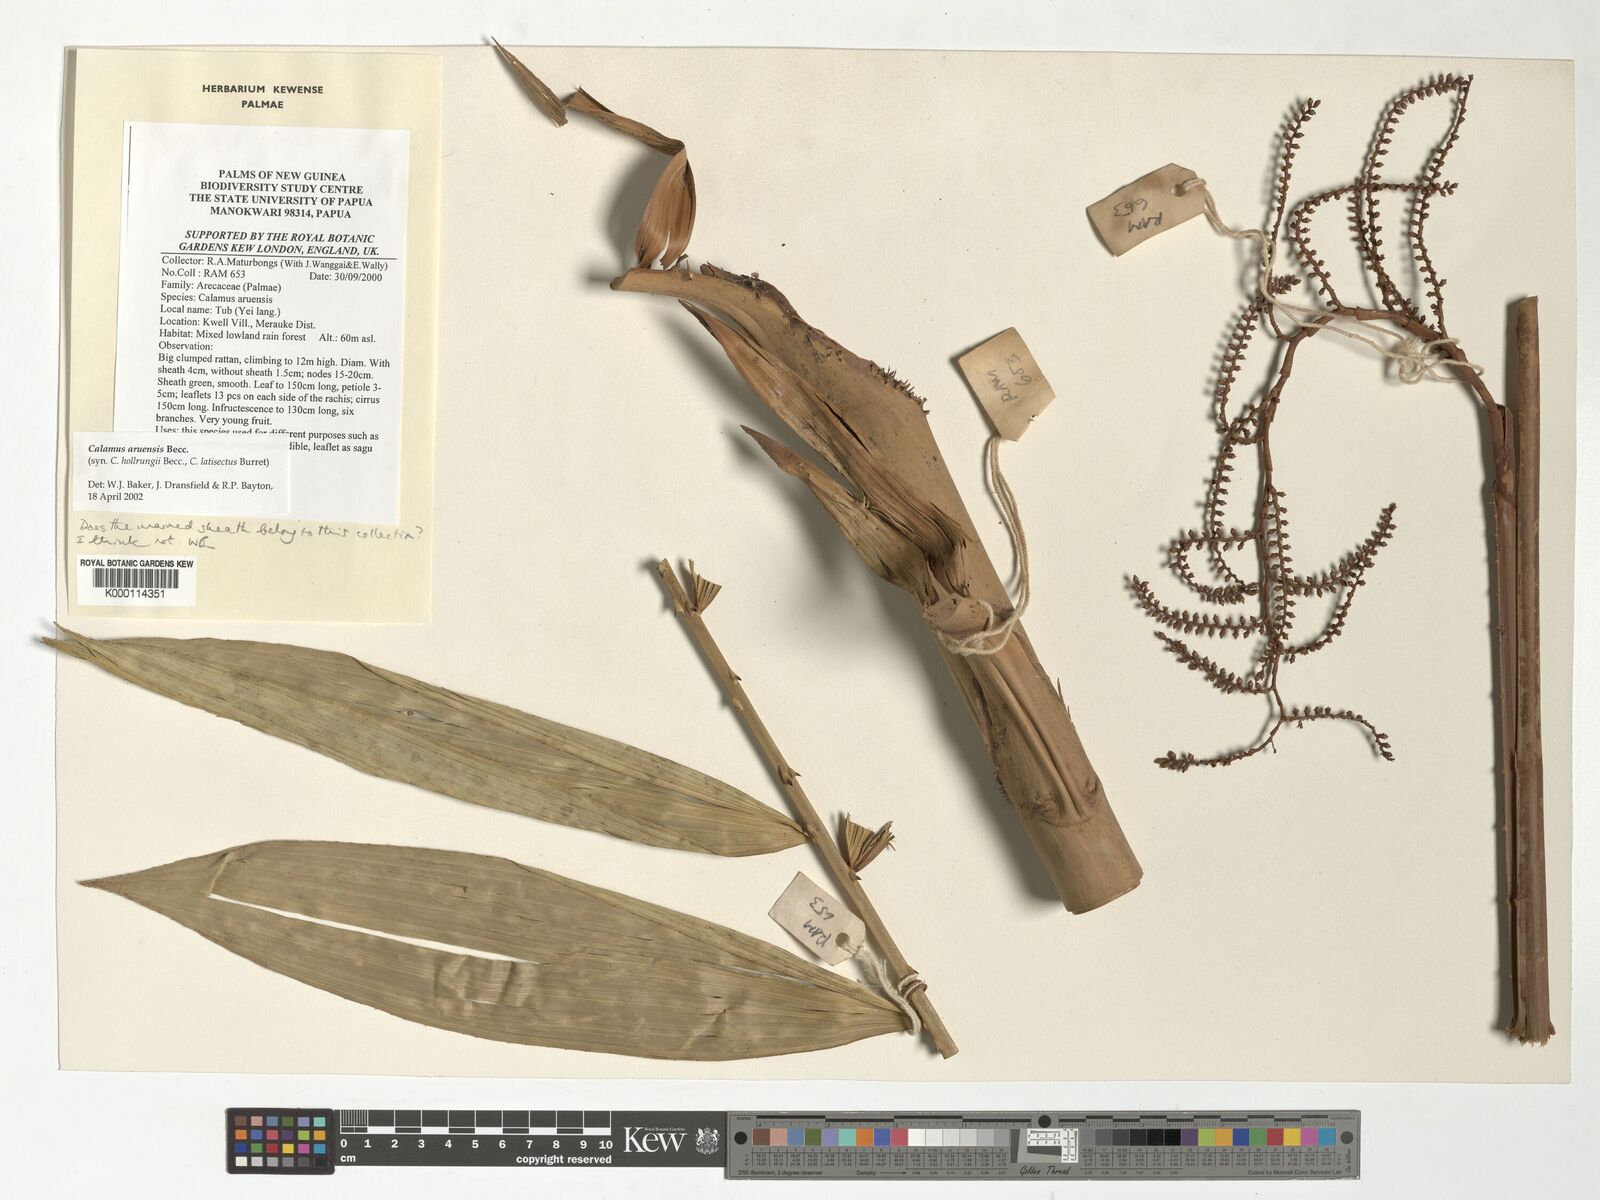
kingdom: Plantae
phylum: Tracheophyta
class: Liliopsida
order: Arecales
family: Arecaceae
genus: Calamus
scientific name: Calamus aruensis
